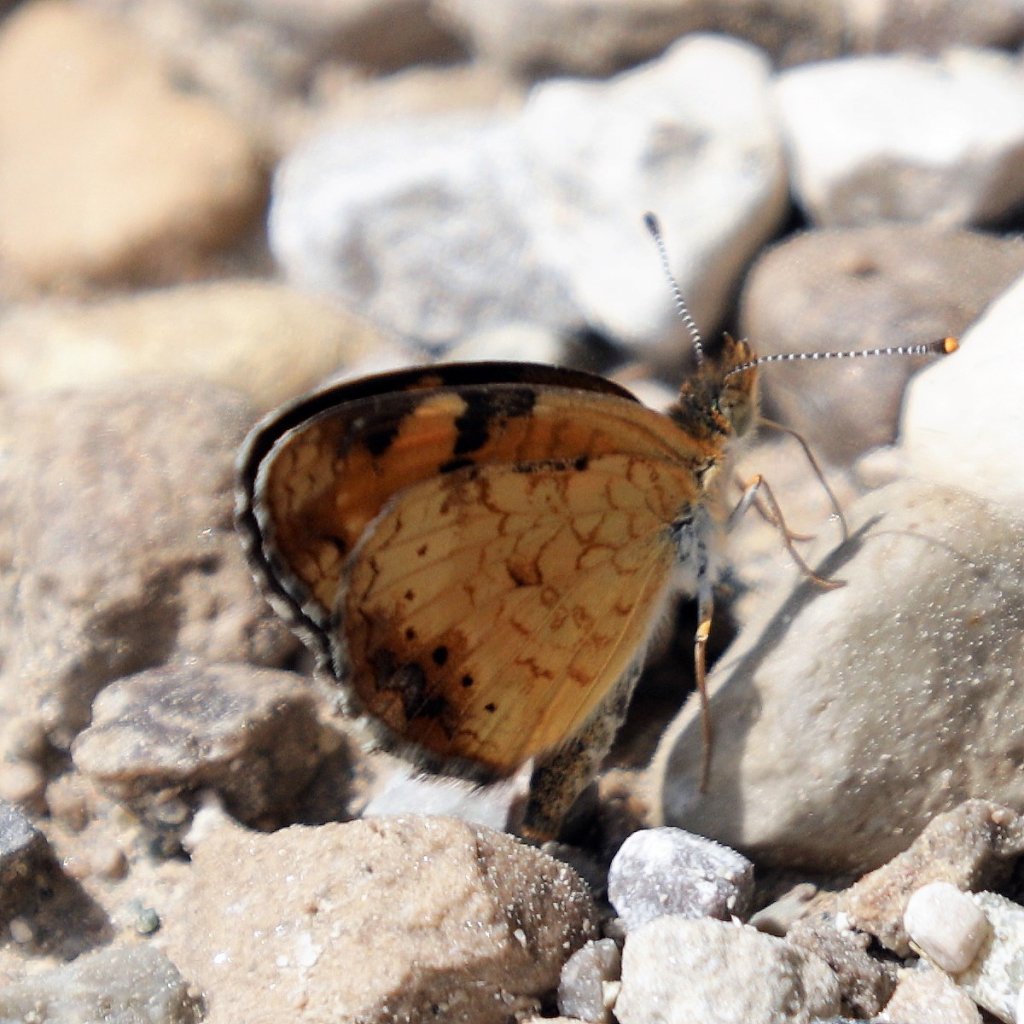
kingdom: Animalia
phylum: Arthropoda
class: Insecta
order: Lepidoptera
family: Nymphalidae
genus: Phyciodes
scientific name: Phyciodes tharos
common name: Northern Crescent
